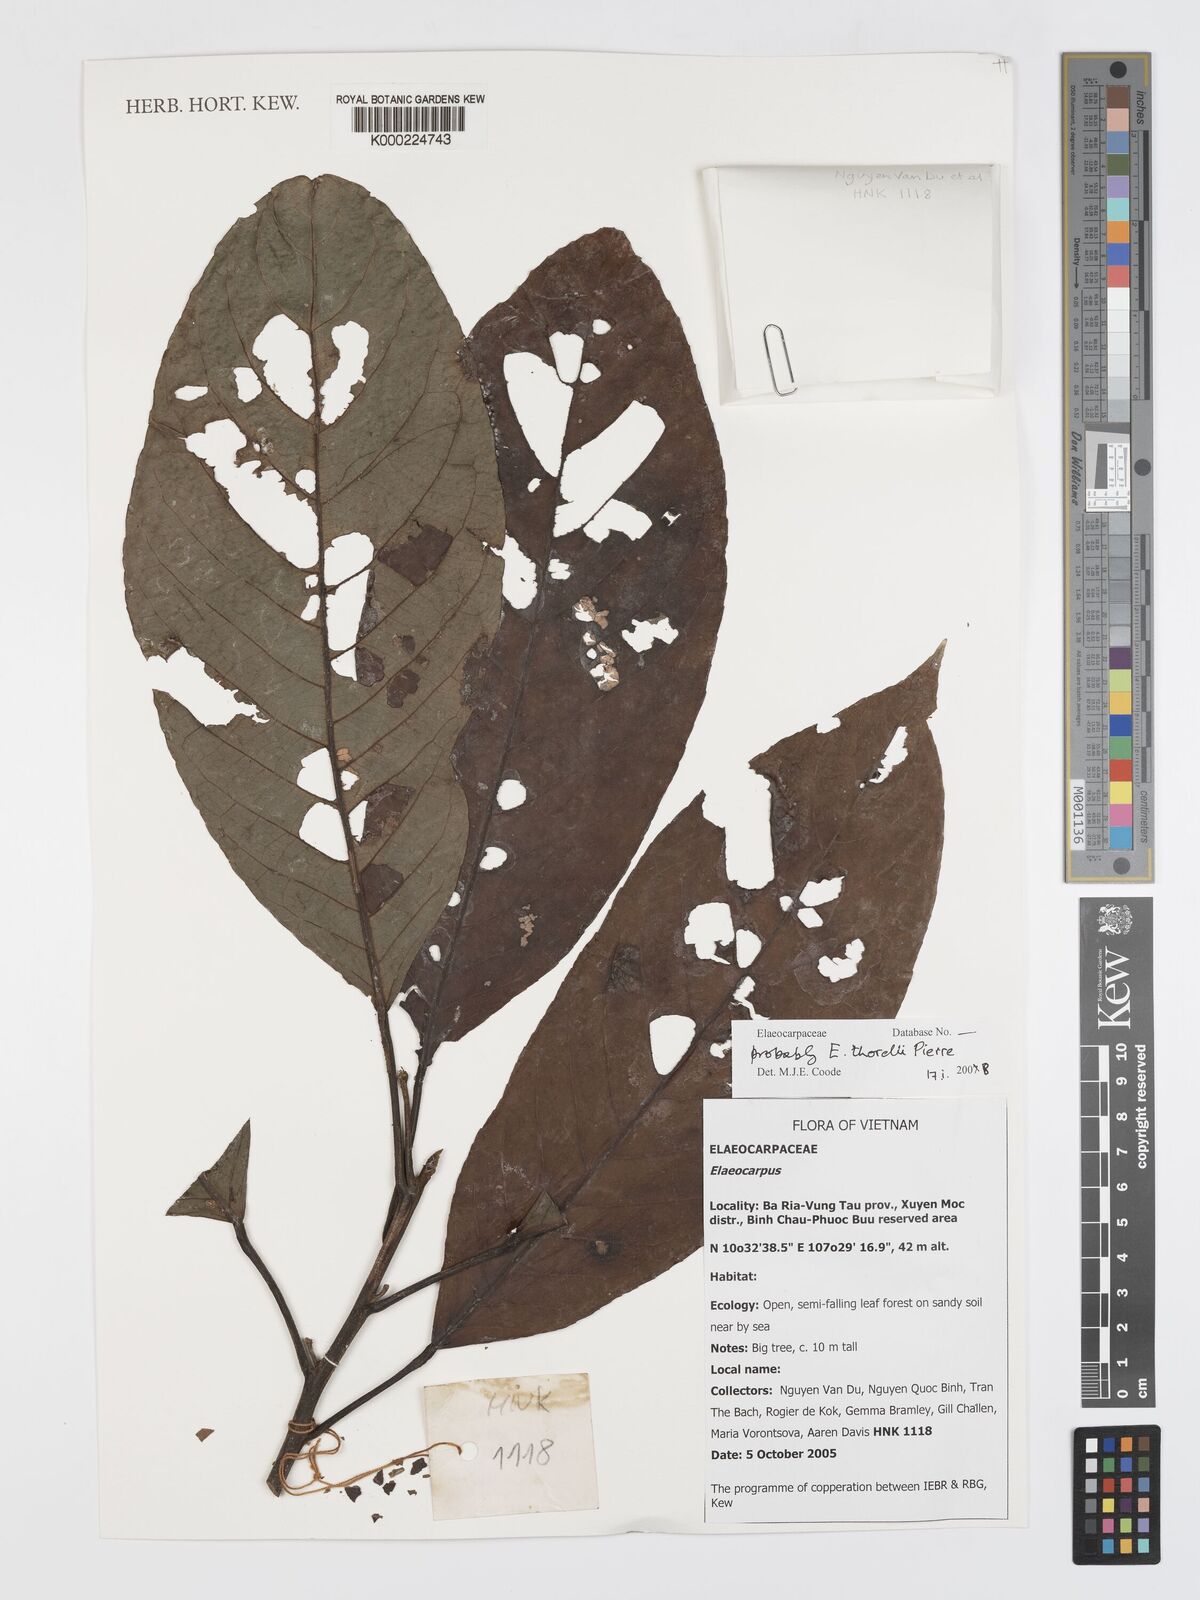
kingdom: Plantae
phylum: Tracheophyta
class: Magnoliopsida
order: Oxalidales
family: Elaeocarpaceae
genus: Elaeocarpus
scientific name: Elaeocarpus stipularis
